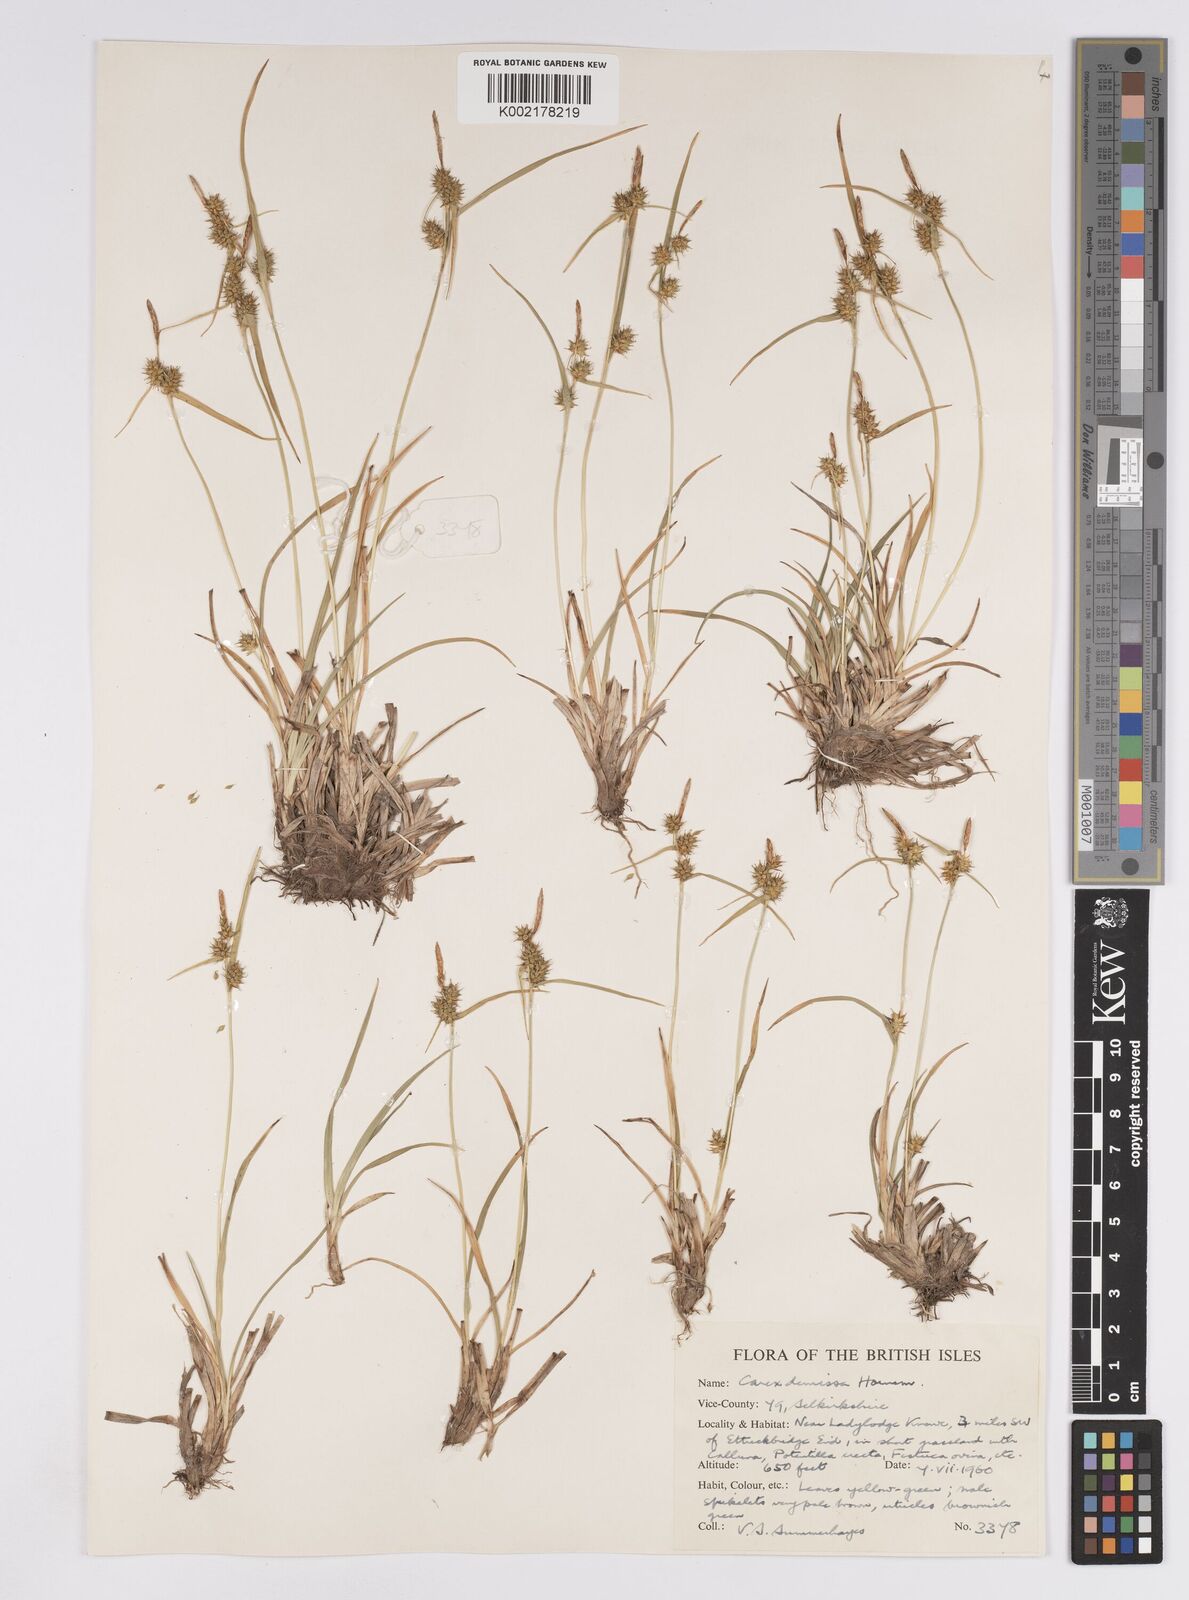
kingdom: Plantae
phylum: Tracheophyta
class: Liliopsida
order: Poales
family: Cyperaceae
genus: Carex
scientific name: Carex demissa
